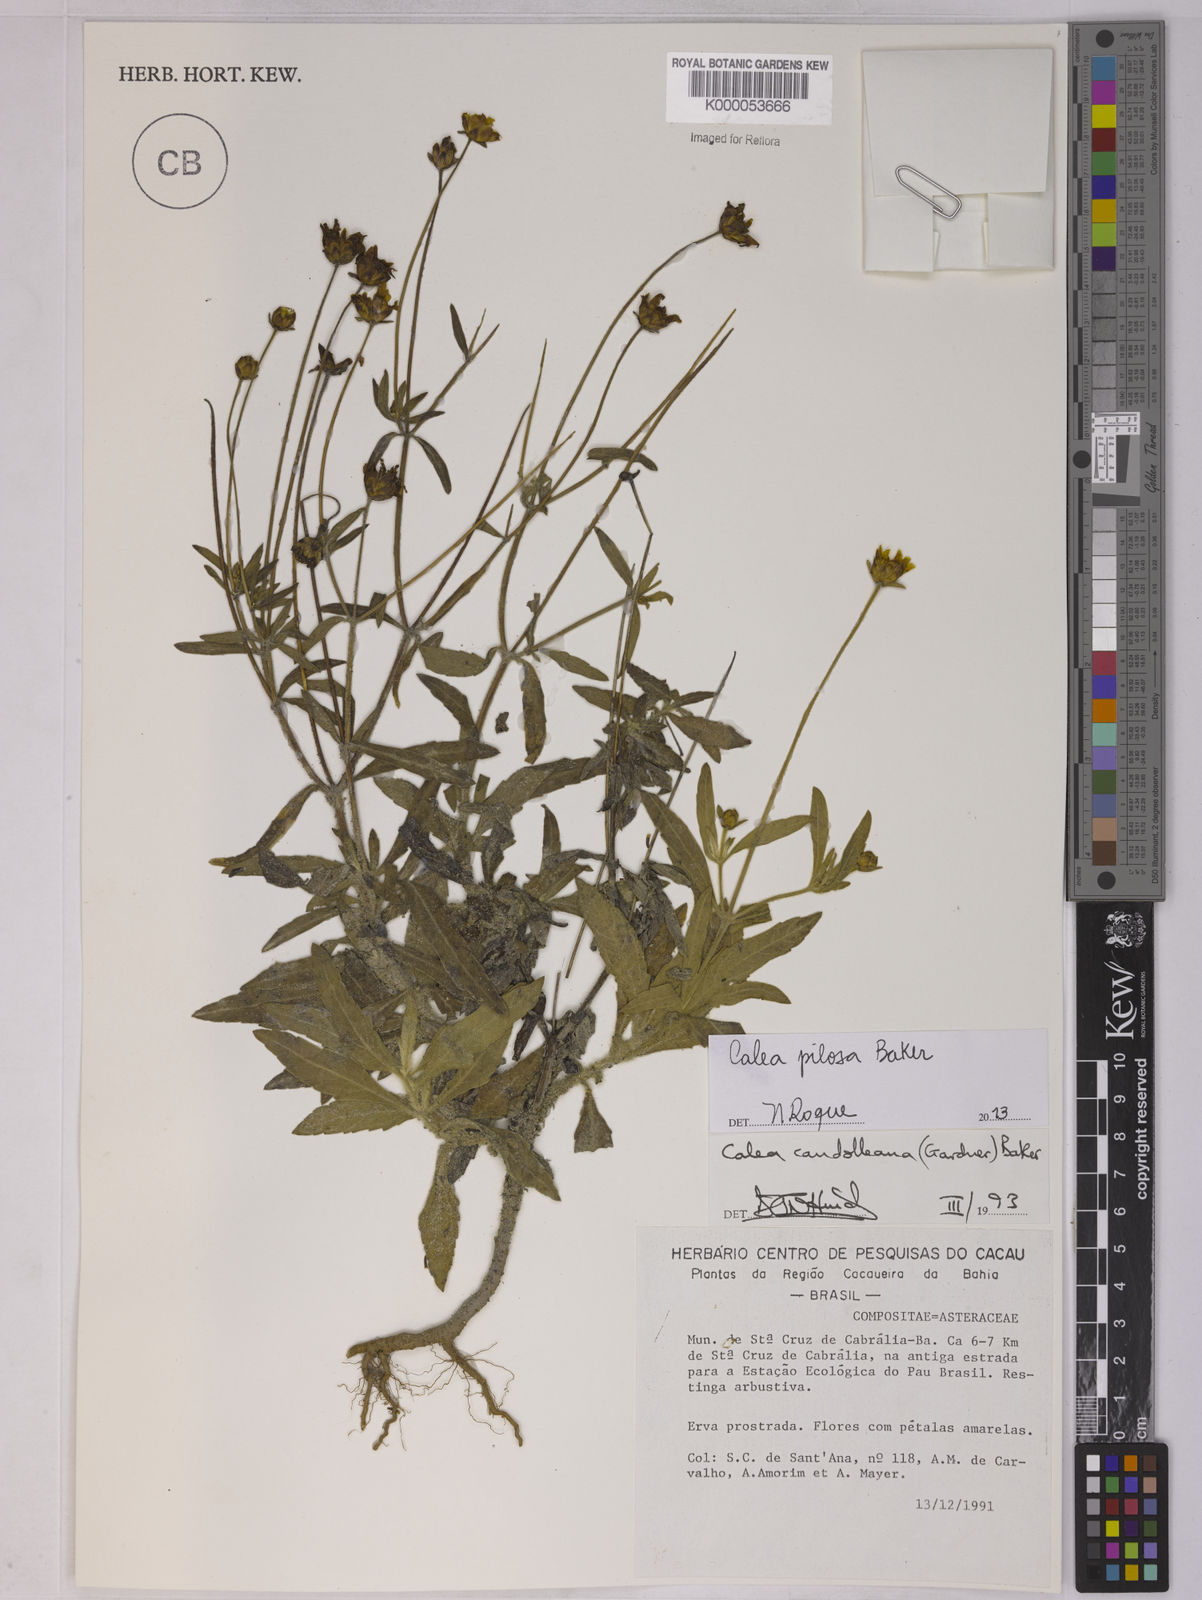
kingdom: Plantae
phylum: Tracheophyta
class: Magnoliopsida
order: Asterales
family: Asteraceae
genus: Calea
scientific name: Calea candolleana
